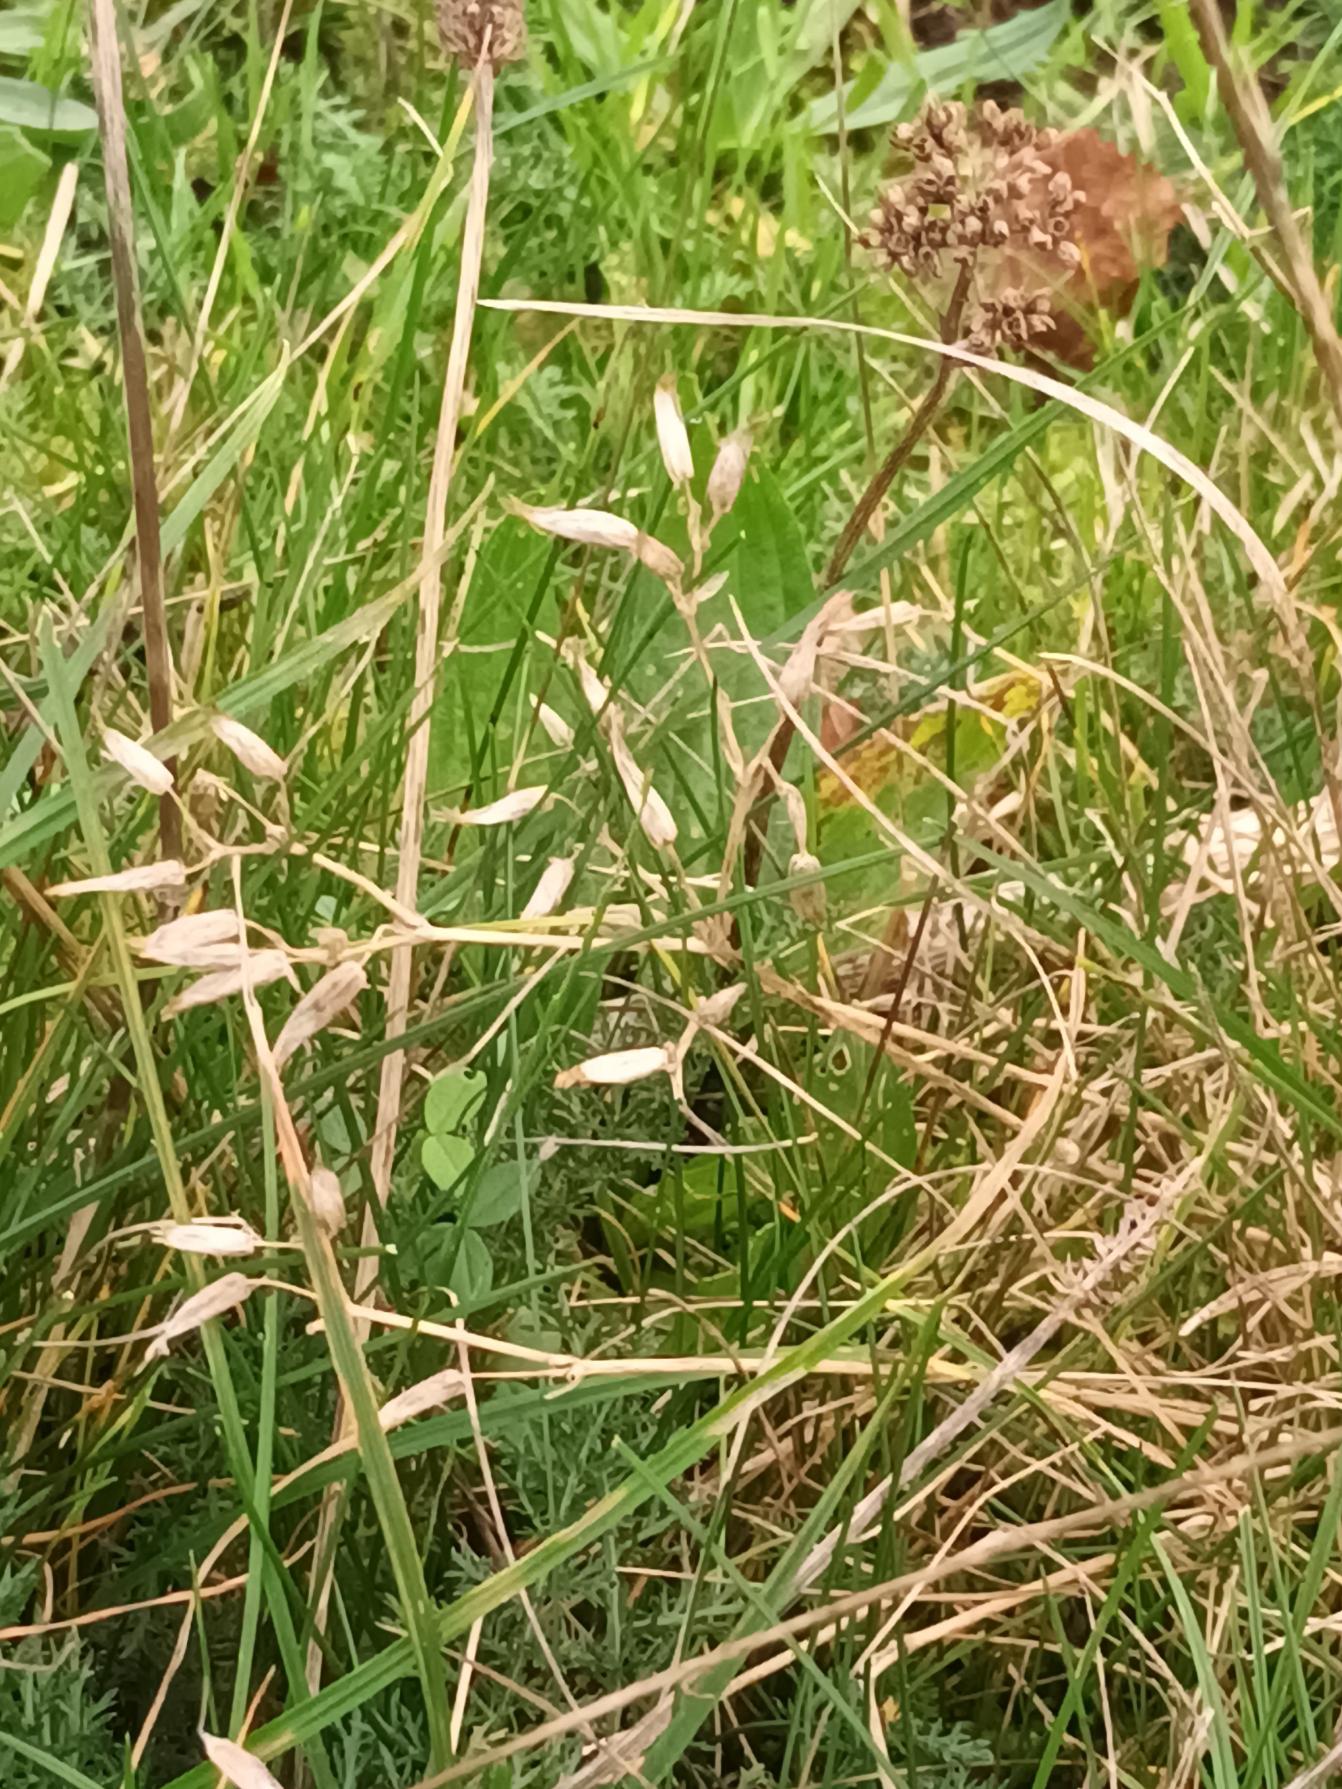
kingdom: Plantae
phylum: Tracheophyta
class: Magnoliopsida
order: Caryophyllales
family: Caryophyllaceae
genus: Cerastium
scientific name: Cerastium fontanum
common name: Almindelig hønsetarm
